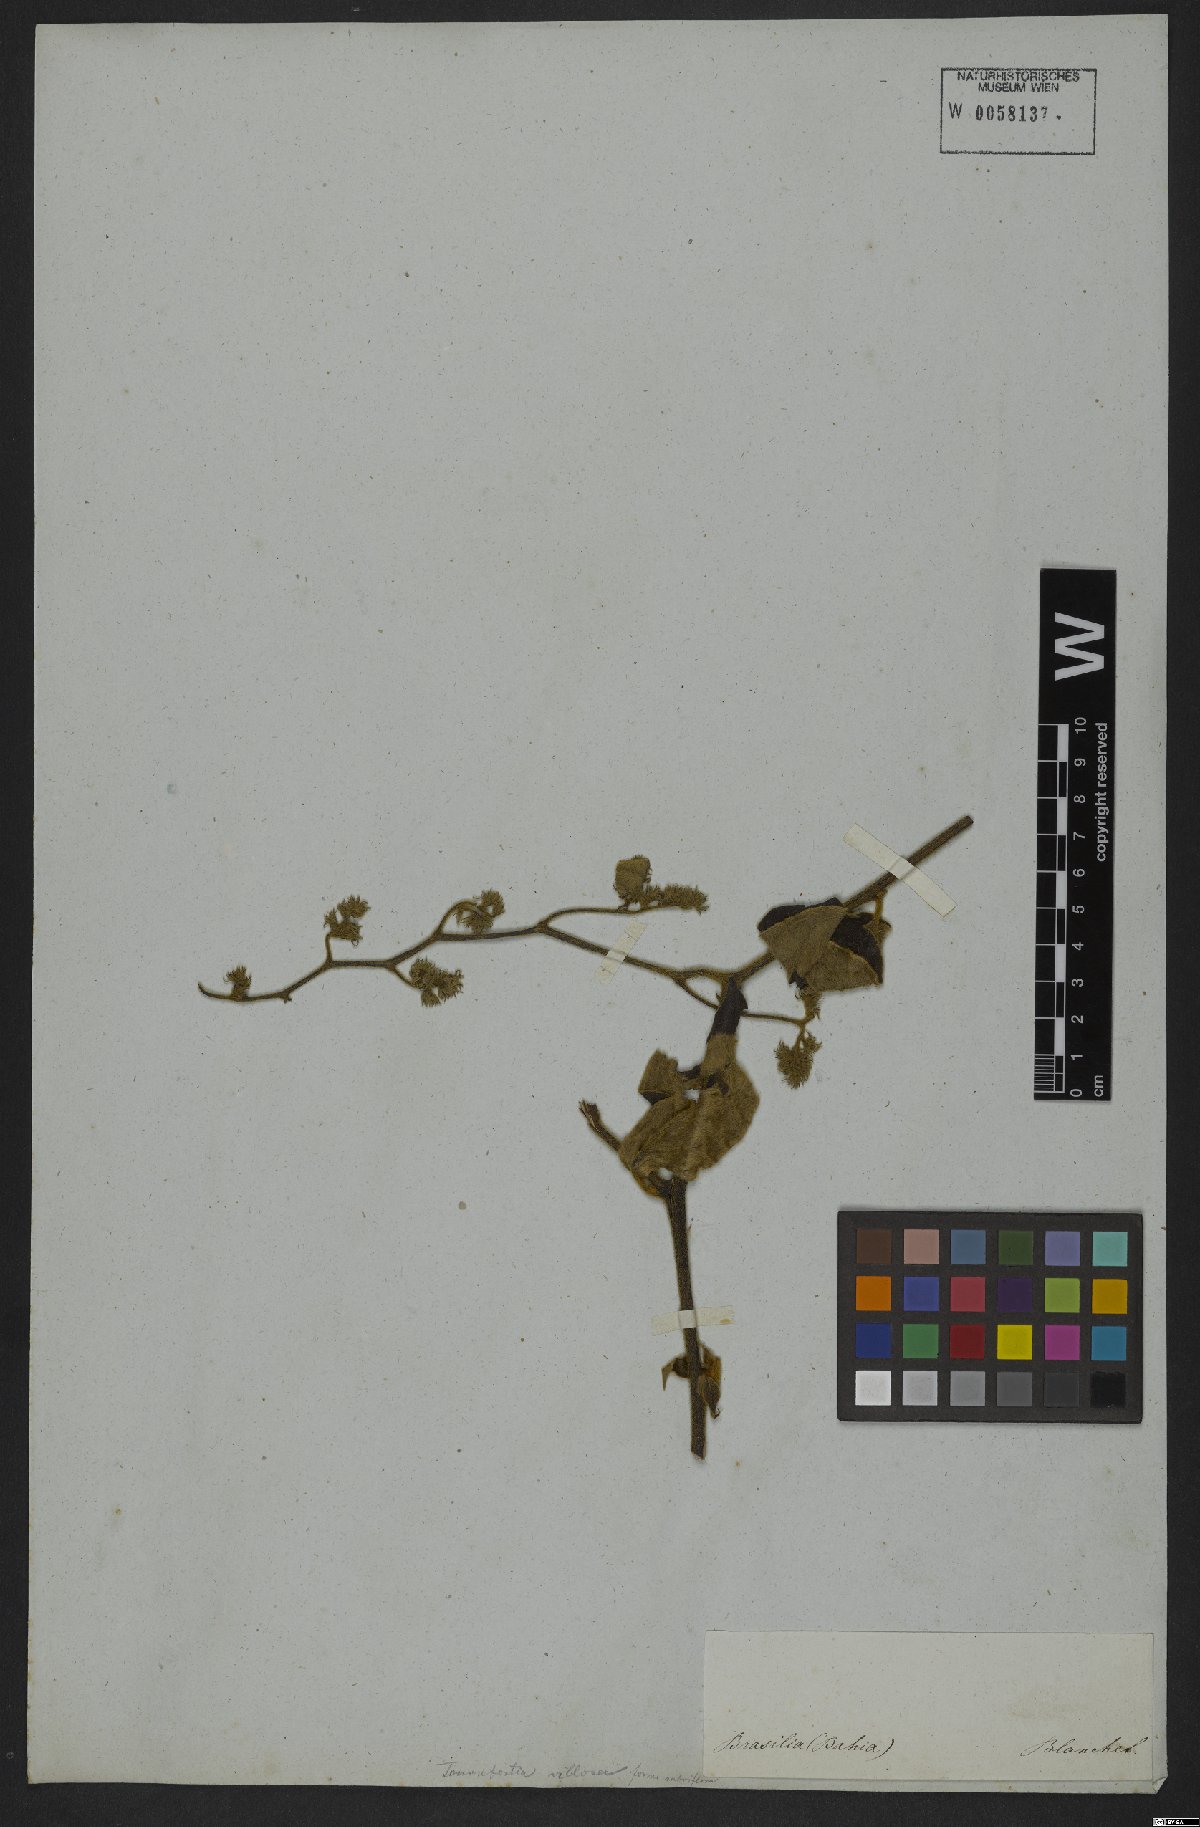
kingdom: Plantae
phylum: Tracheophyta
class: Magnoliopsida
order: Boraginales
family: Heliotropiaceae
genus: Tournefortia
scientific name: Tournefortia villosa
